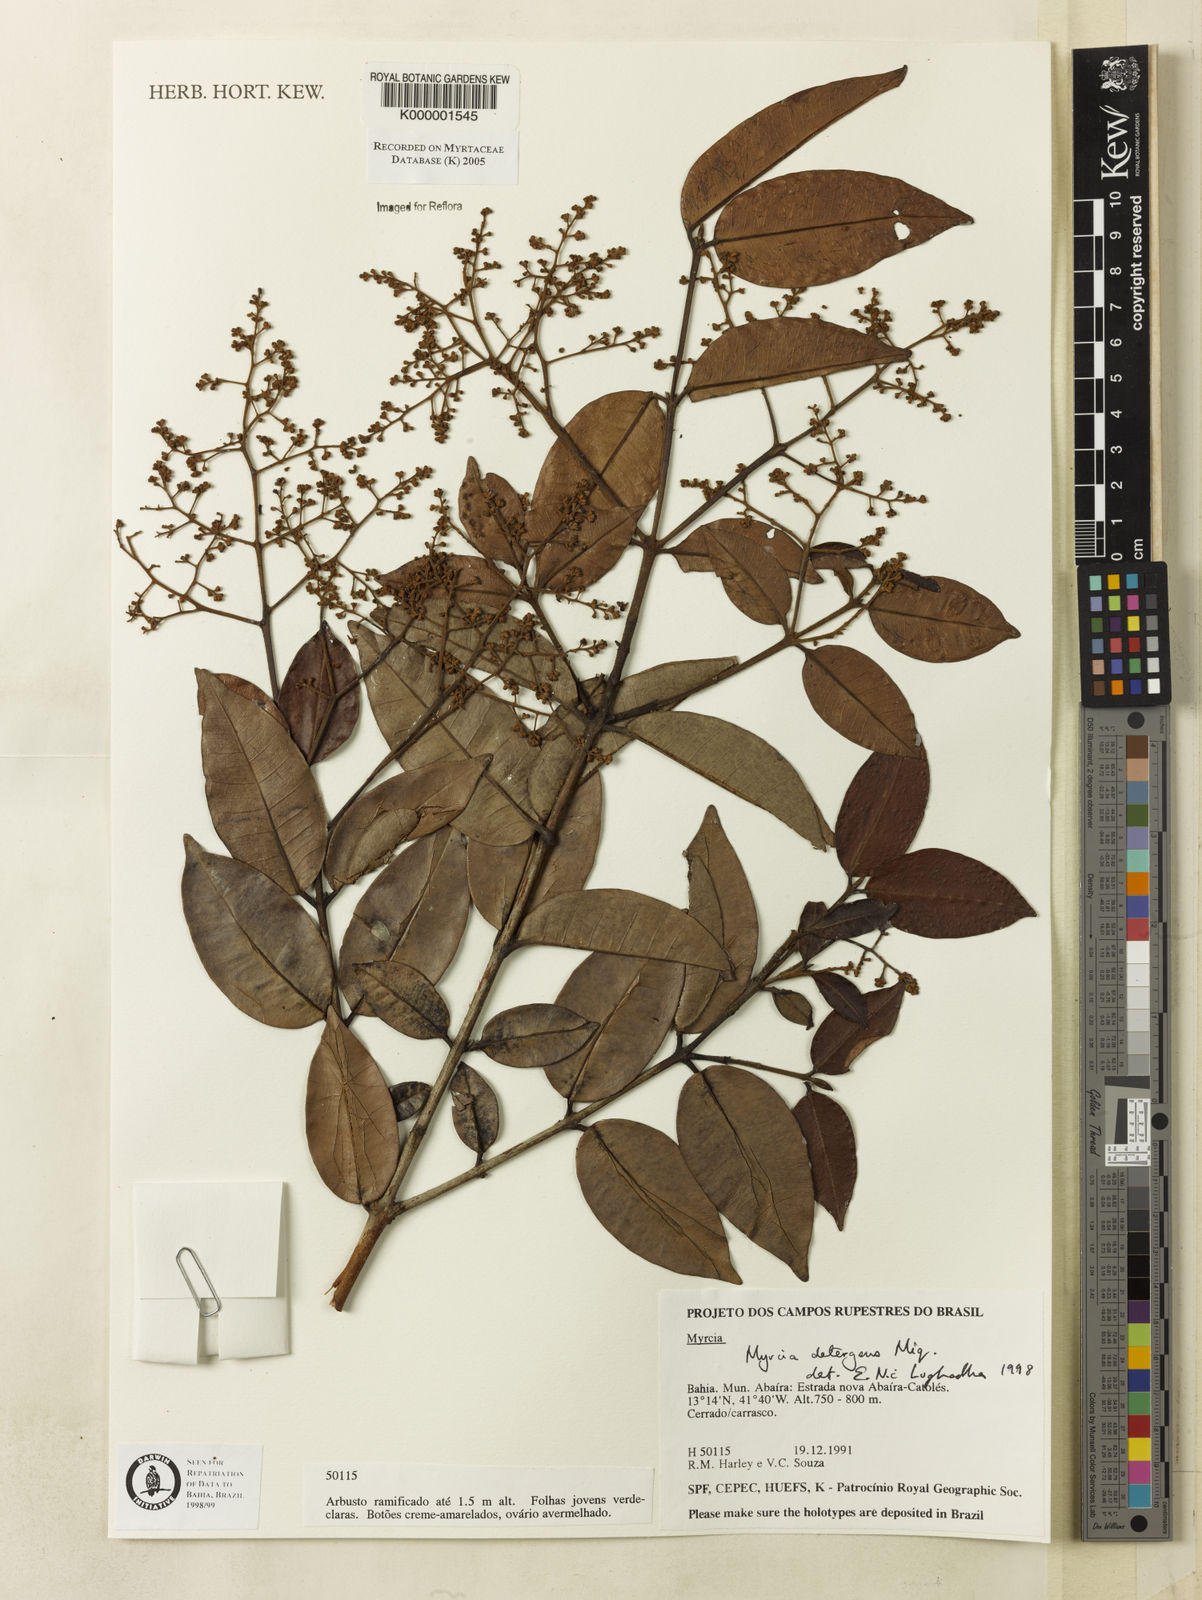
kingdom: Plantae
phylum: Tracheophyta
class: Magnoliopsida
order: Myrtales
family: Myrtaceae
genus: Myrcia
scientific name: Myrcia amazonica
